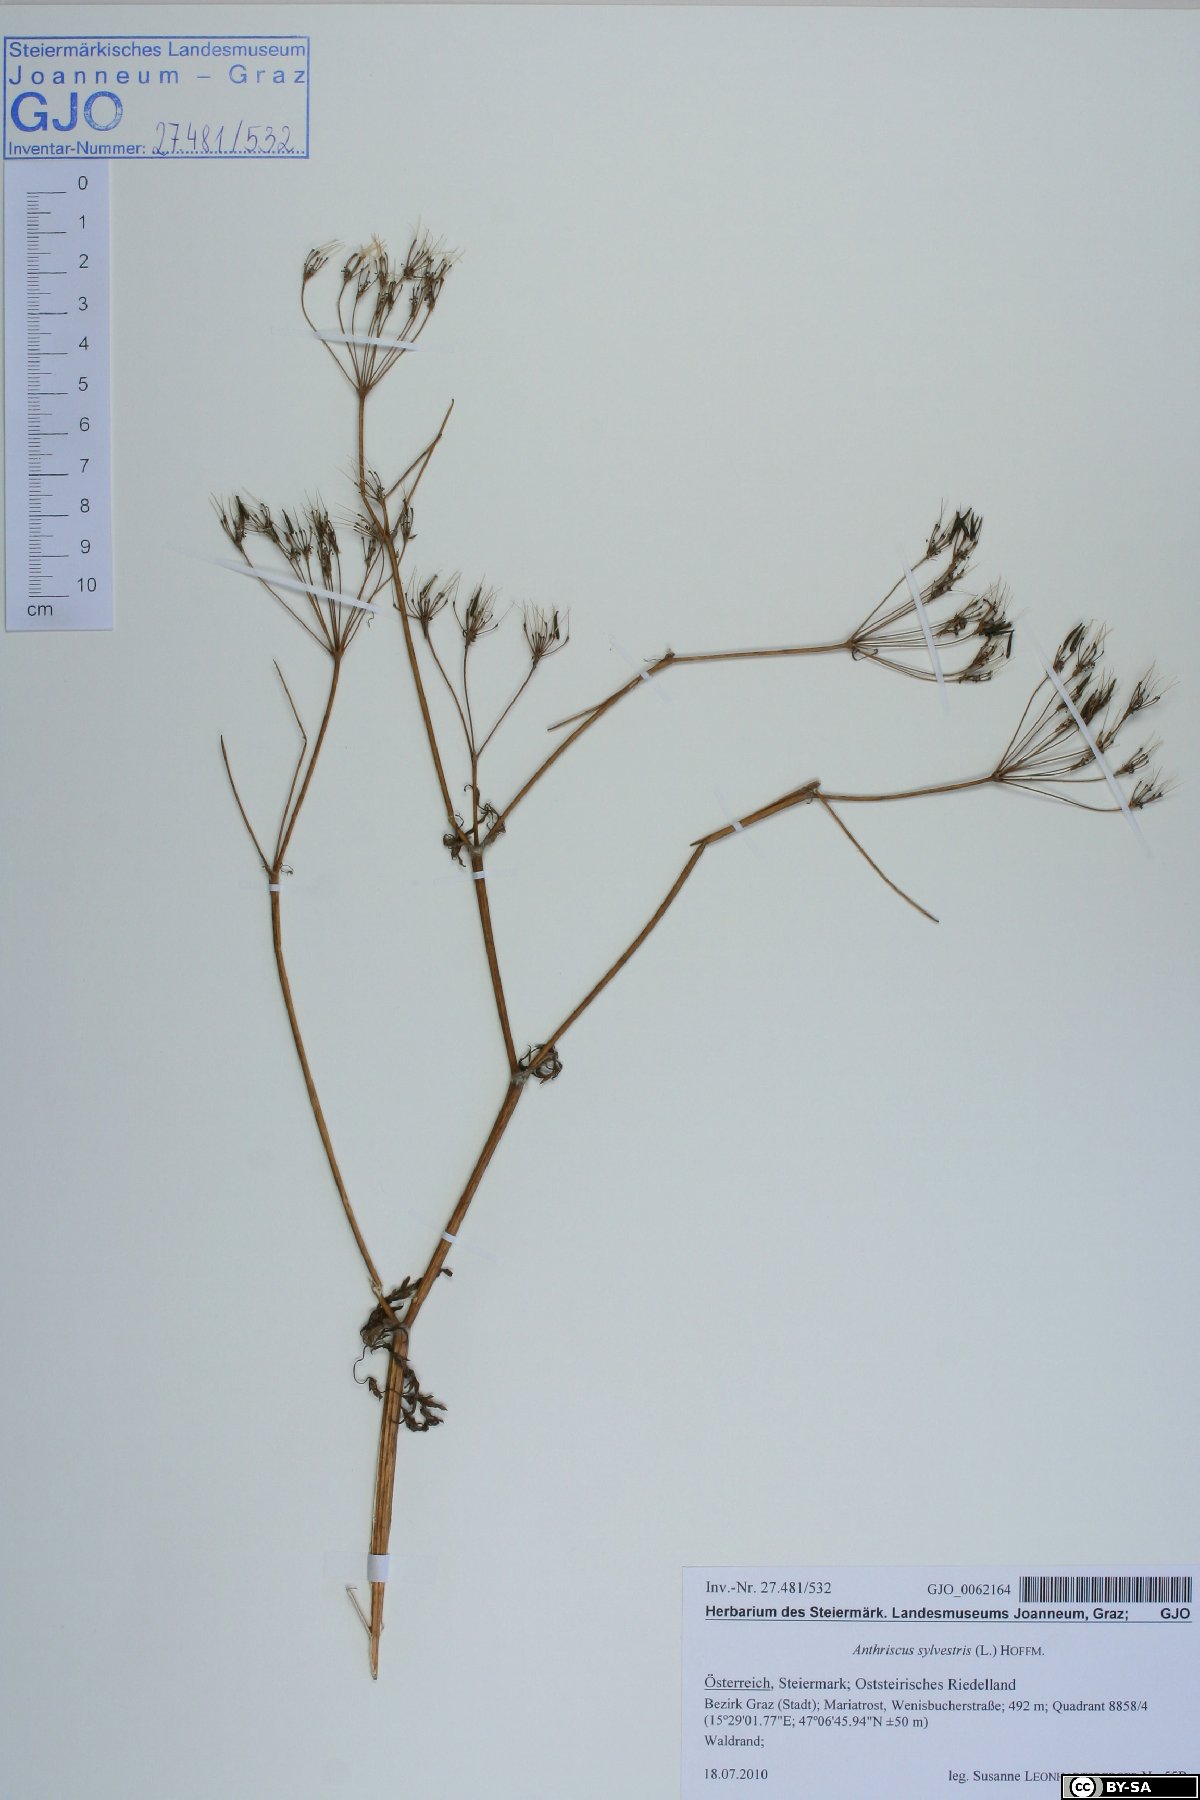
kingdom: Plantae
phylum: Tracheophyta
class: Magnoliopsida
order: Apiales
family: Apiaceae
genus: Anthriscus
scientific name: Anthriscus sylvestris
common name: Cow parsley
